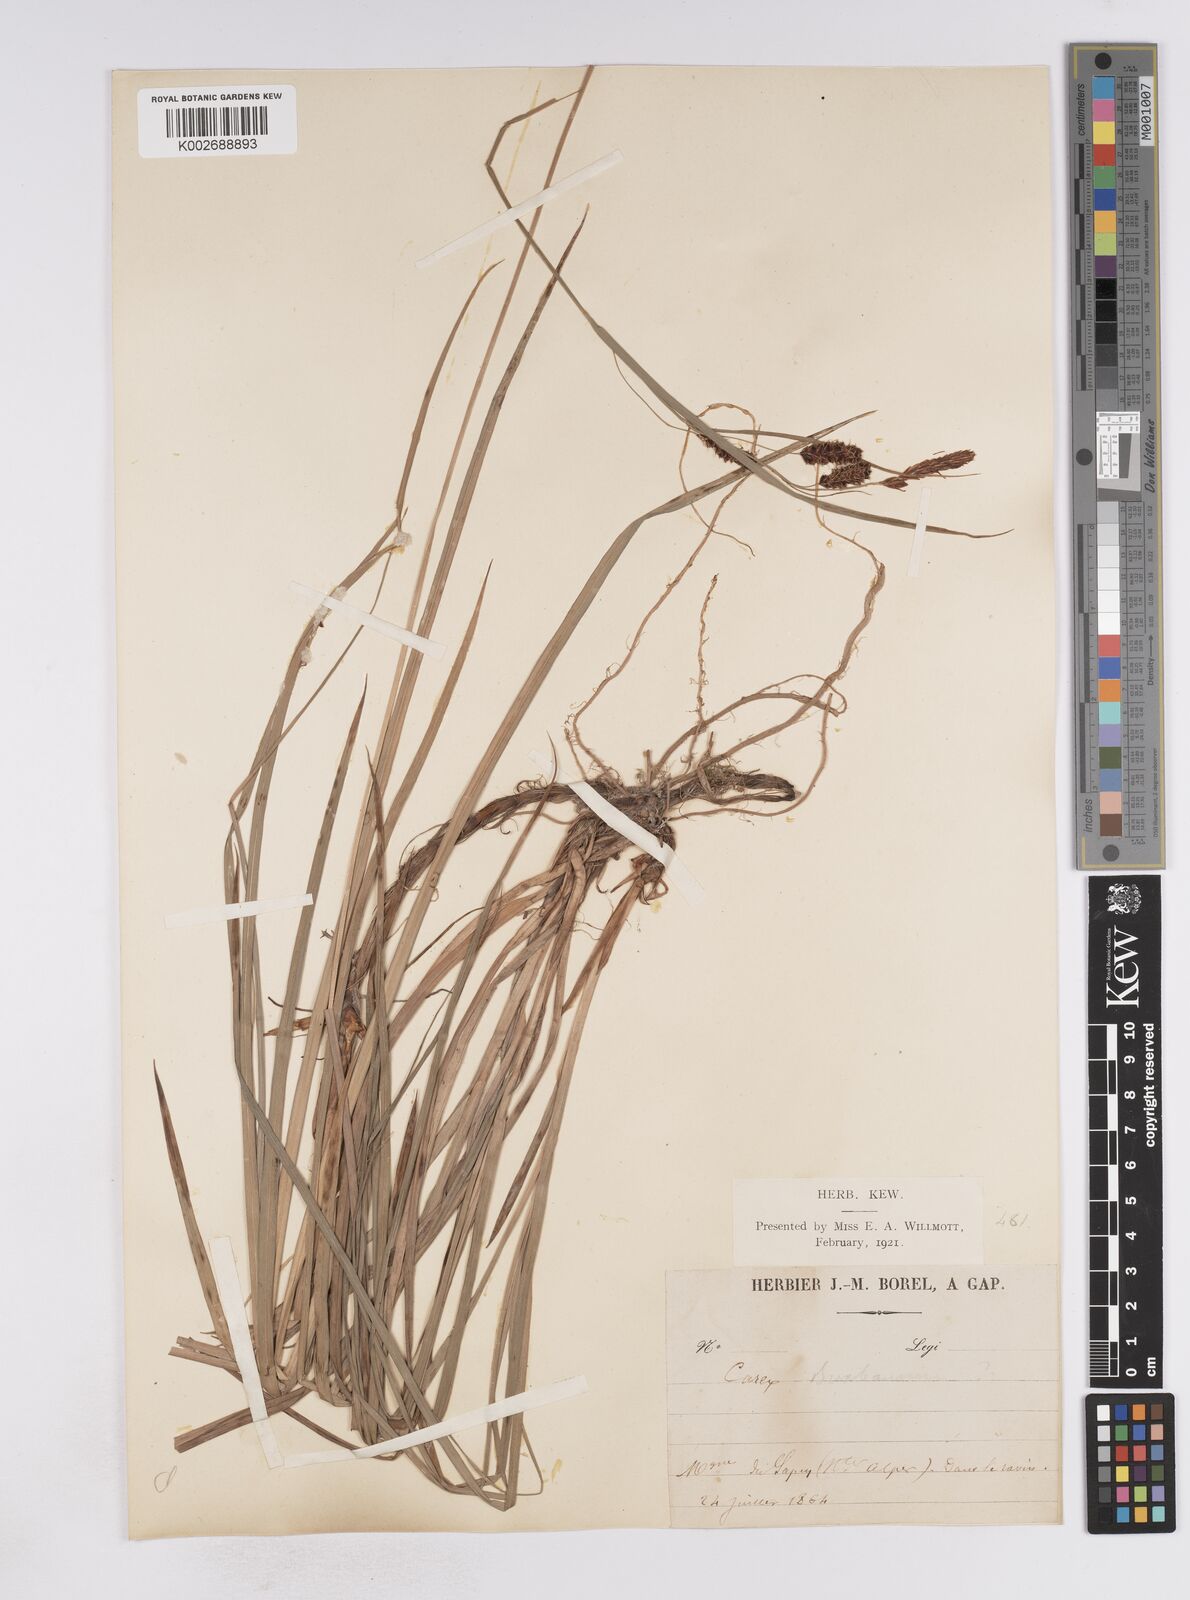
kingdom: Plantae
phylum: Tracheophyta
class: Liliopsida
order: Poales
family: Cyperaceae
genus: Carex
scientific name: Carex buxbaumii
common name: Club sedge
